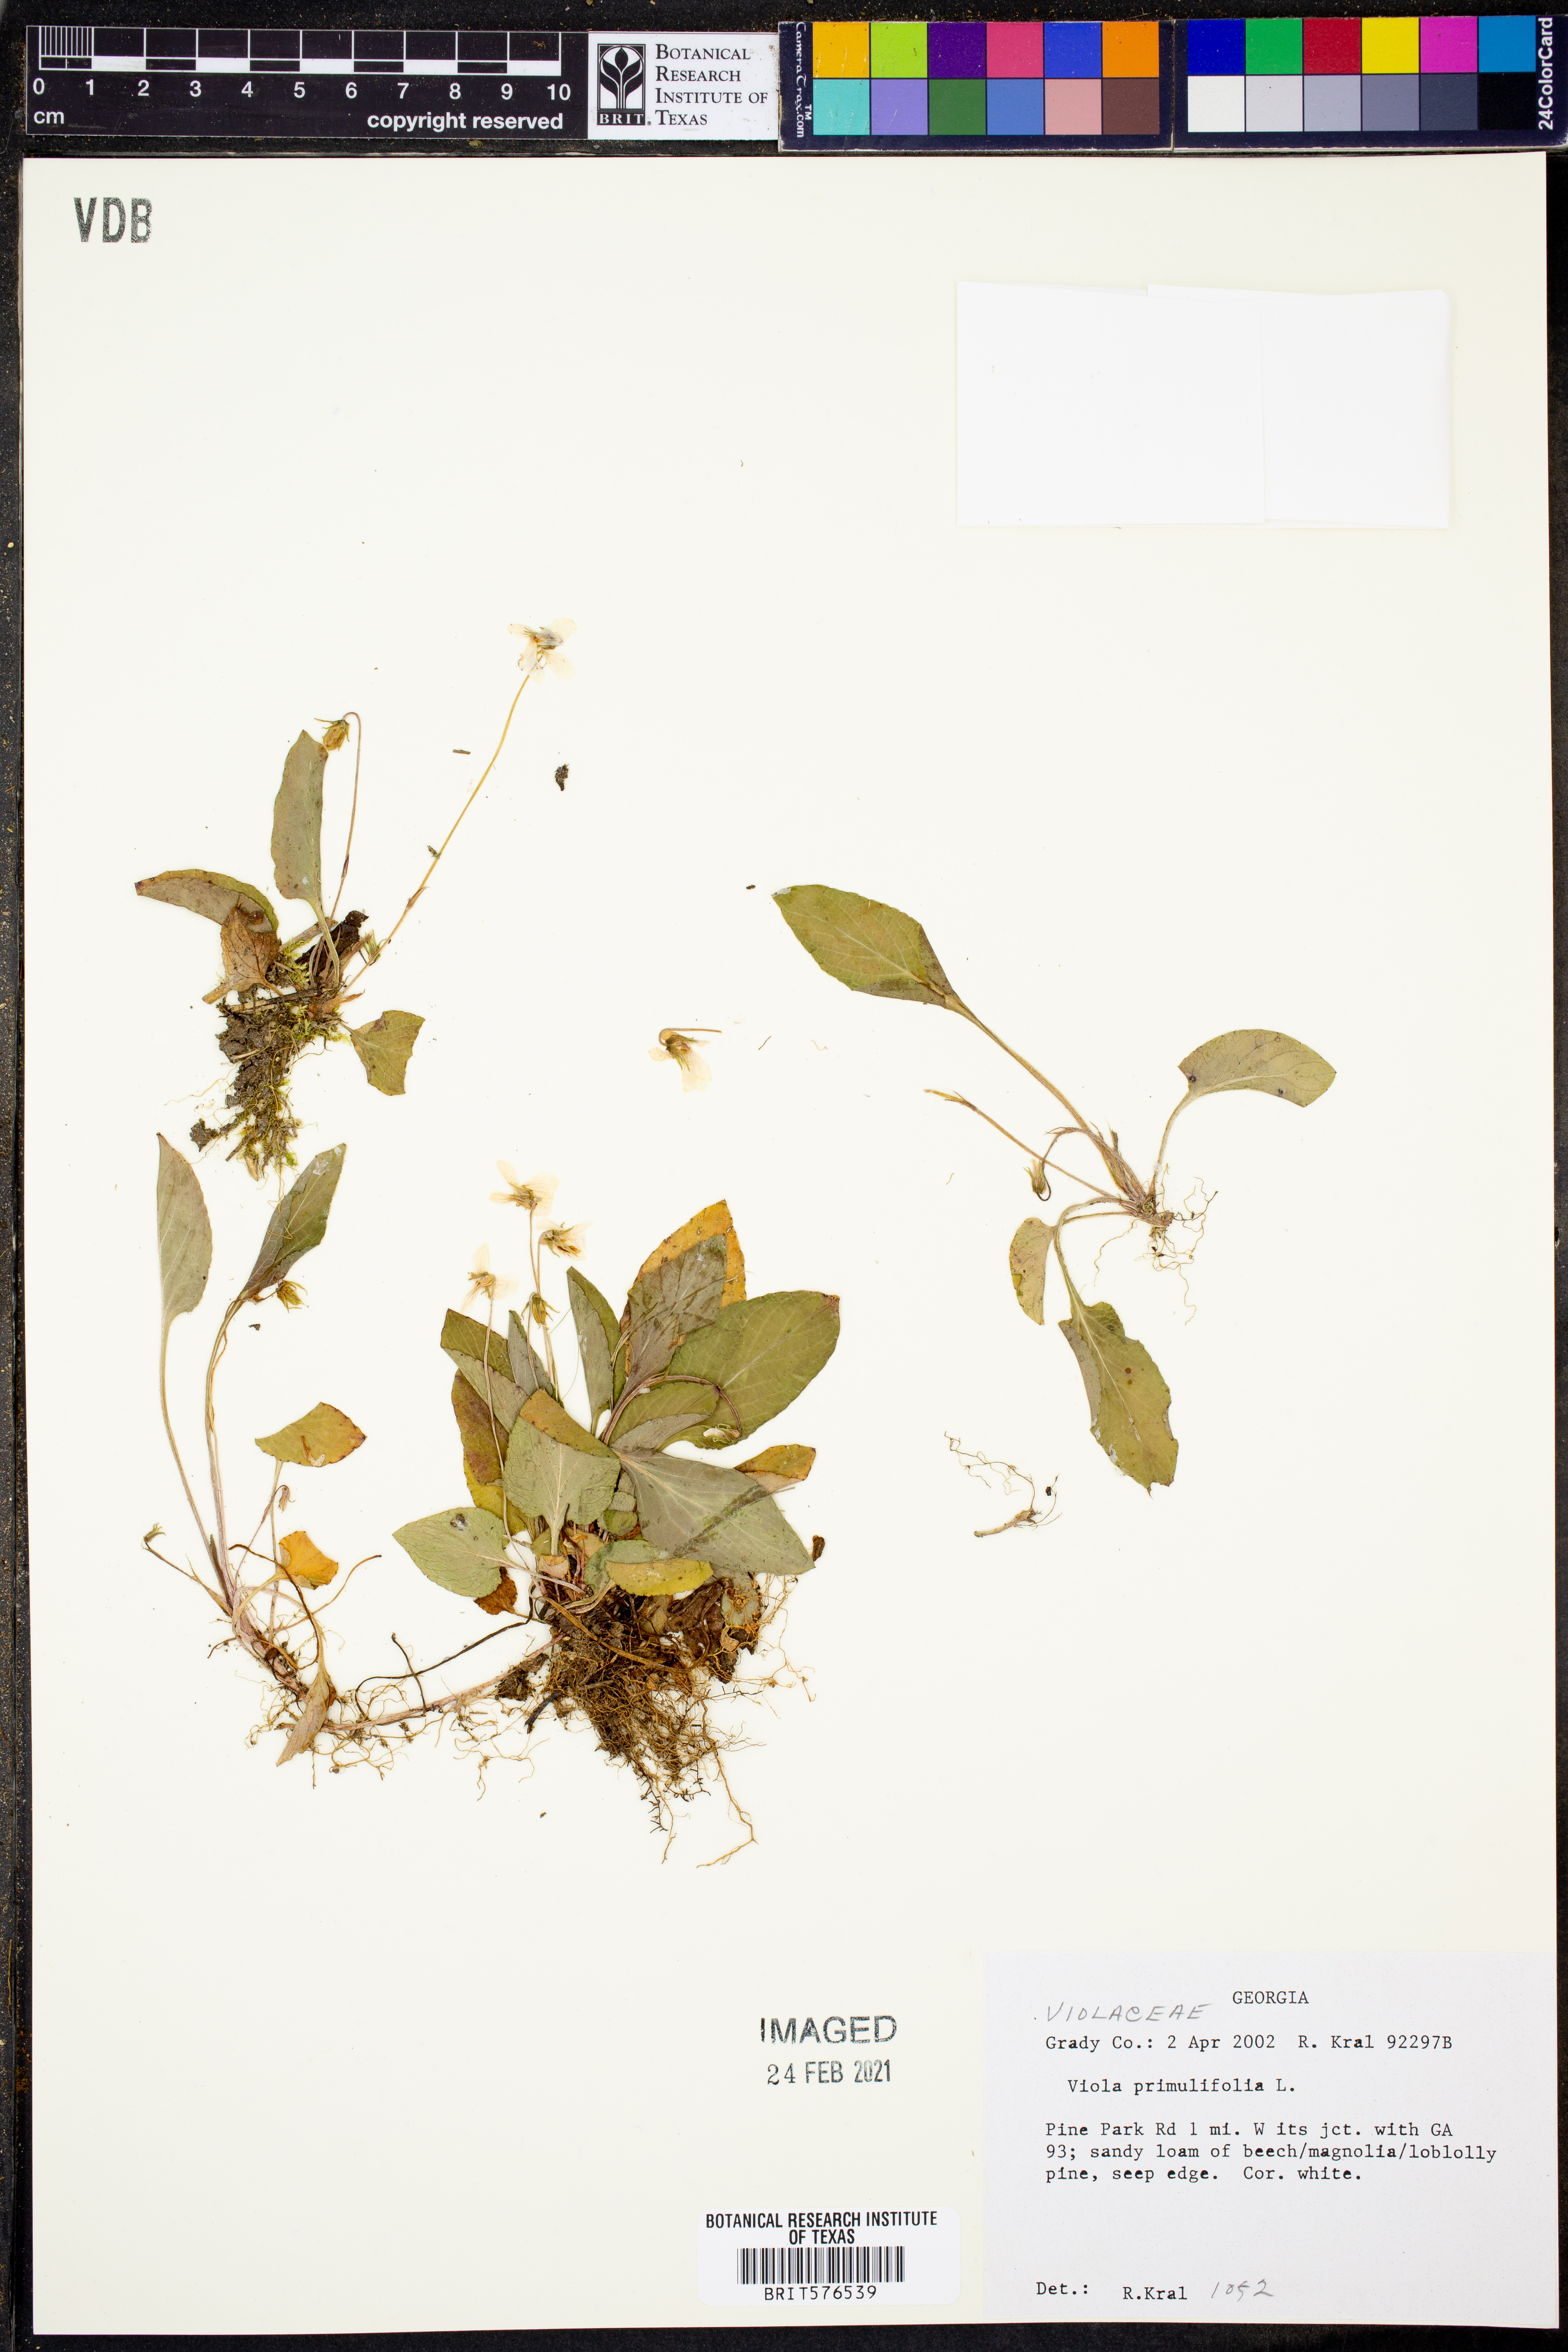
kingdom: Plantae
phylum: Tracheophyta
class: Magnoliopsida
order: Malpighiales
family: Violaceae
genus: Viola
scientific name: Viola primulifolia
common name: Primrose-leaf violet
